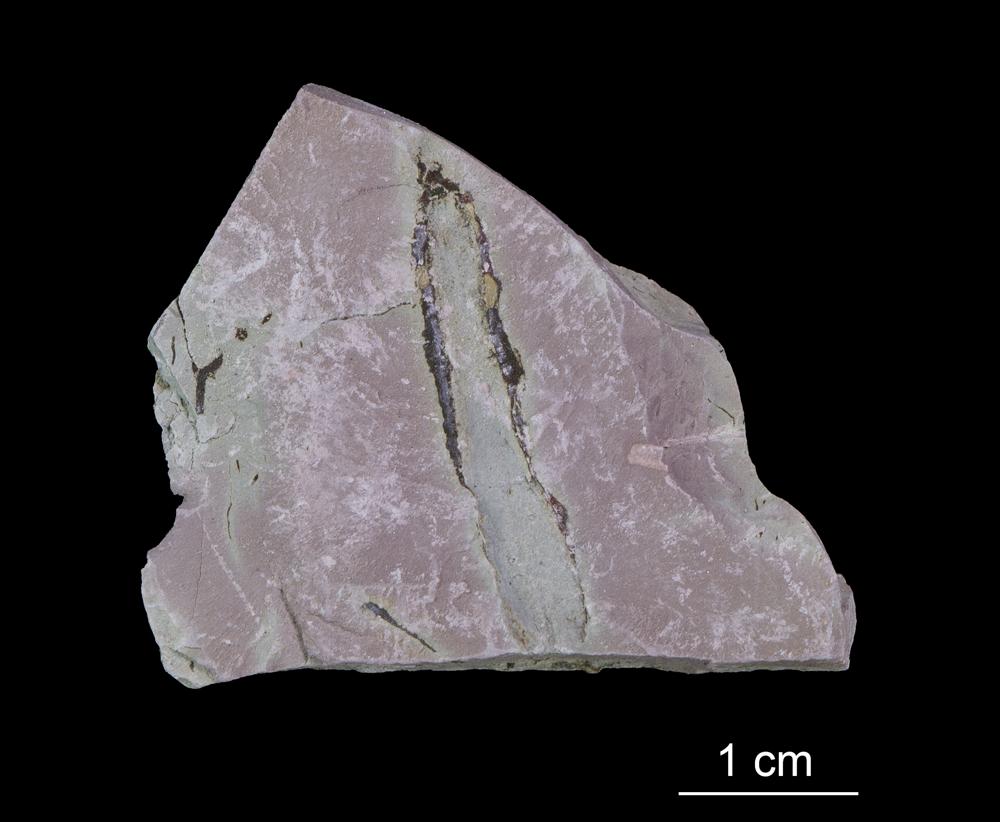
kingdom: Chromista
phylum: Foraminifera
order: Astrorhizida
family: Hyperamminidae
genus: Platysolenites
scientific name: Platysolenites antiquissimus
